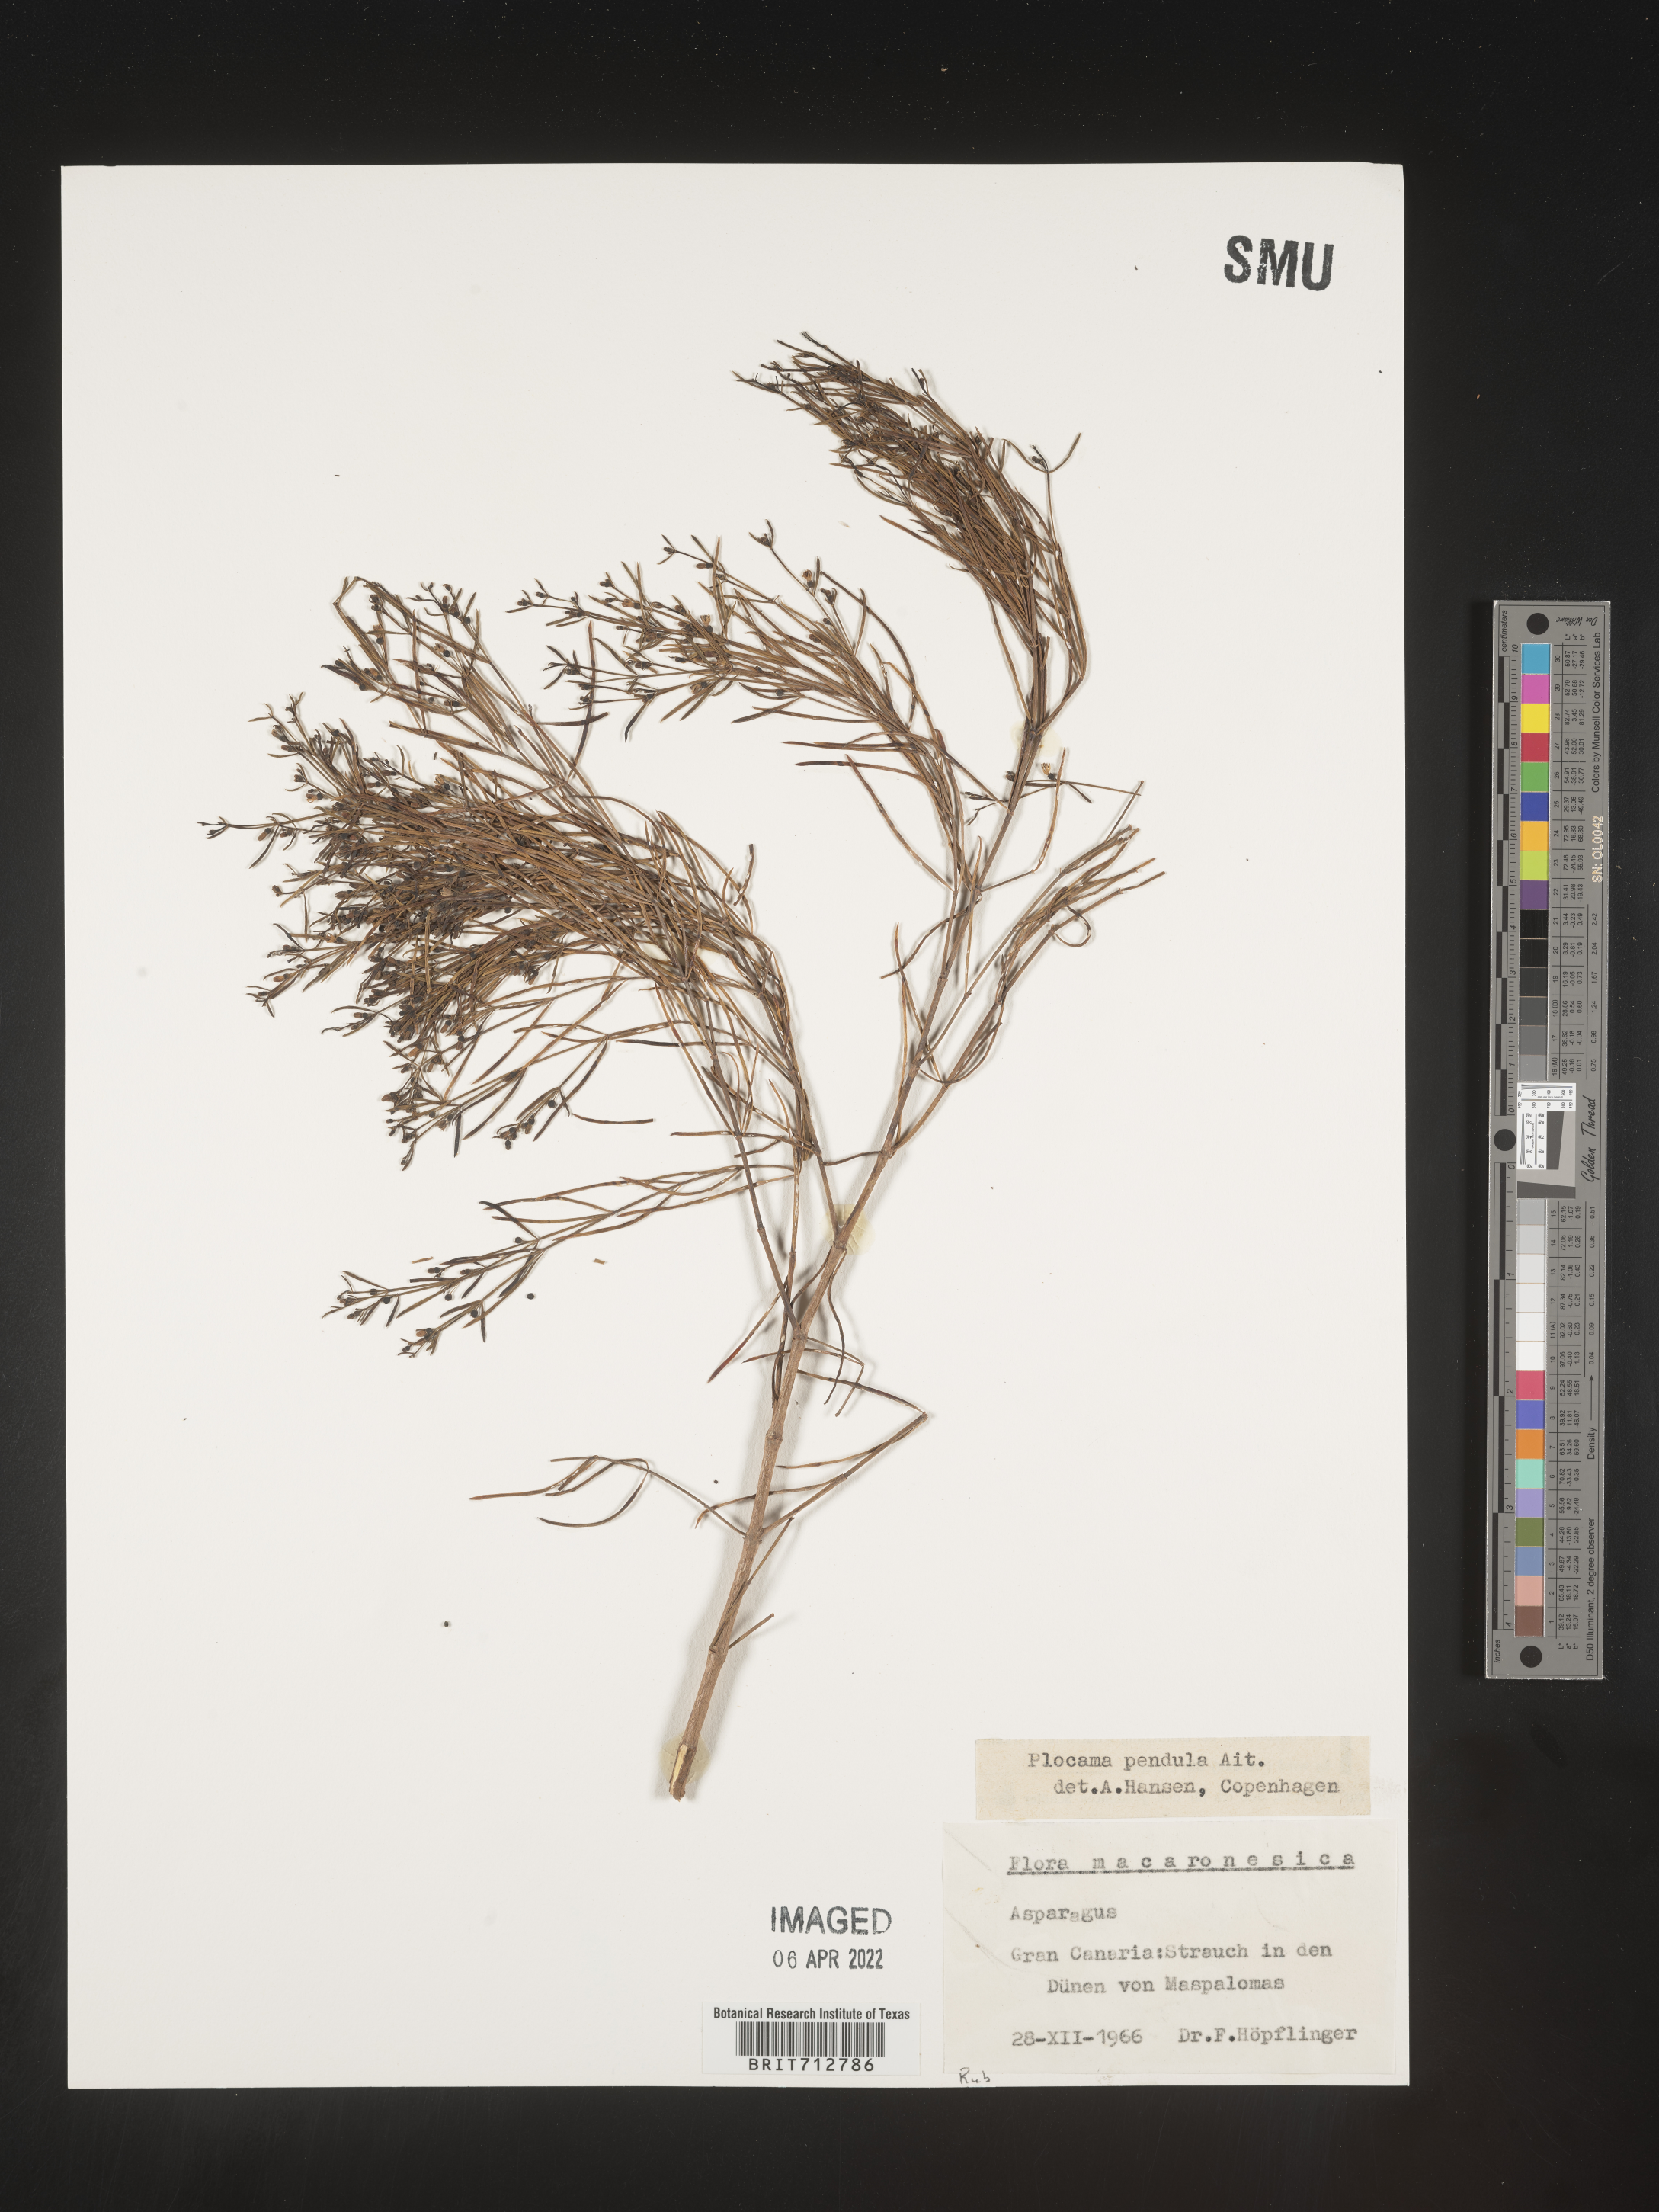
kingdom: Plantae
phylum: Tracheophyta
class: Magnoliopsida
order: Gentianales
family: Rubiaceae
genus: Plocama
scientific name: Plocama
